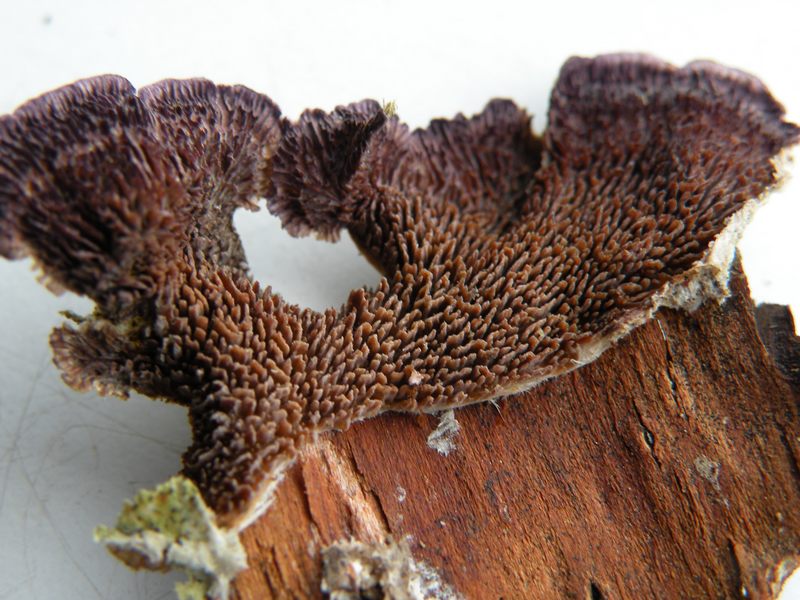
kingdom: Fungi
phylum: Basidiomycota
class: Agaricomycetes
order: Hymenochaetales
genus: Trichaptum
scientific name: Trichaptum fuscoviolaceum
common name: tandet violporesvamp
